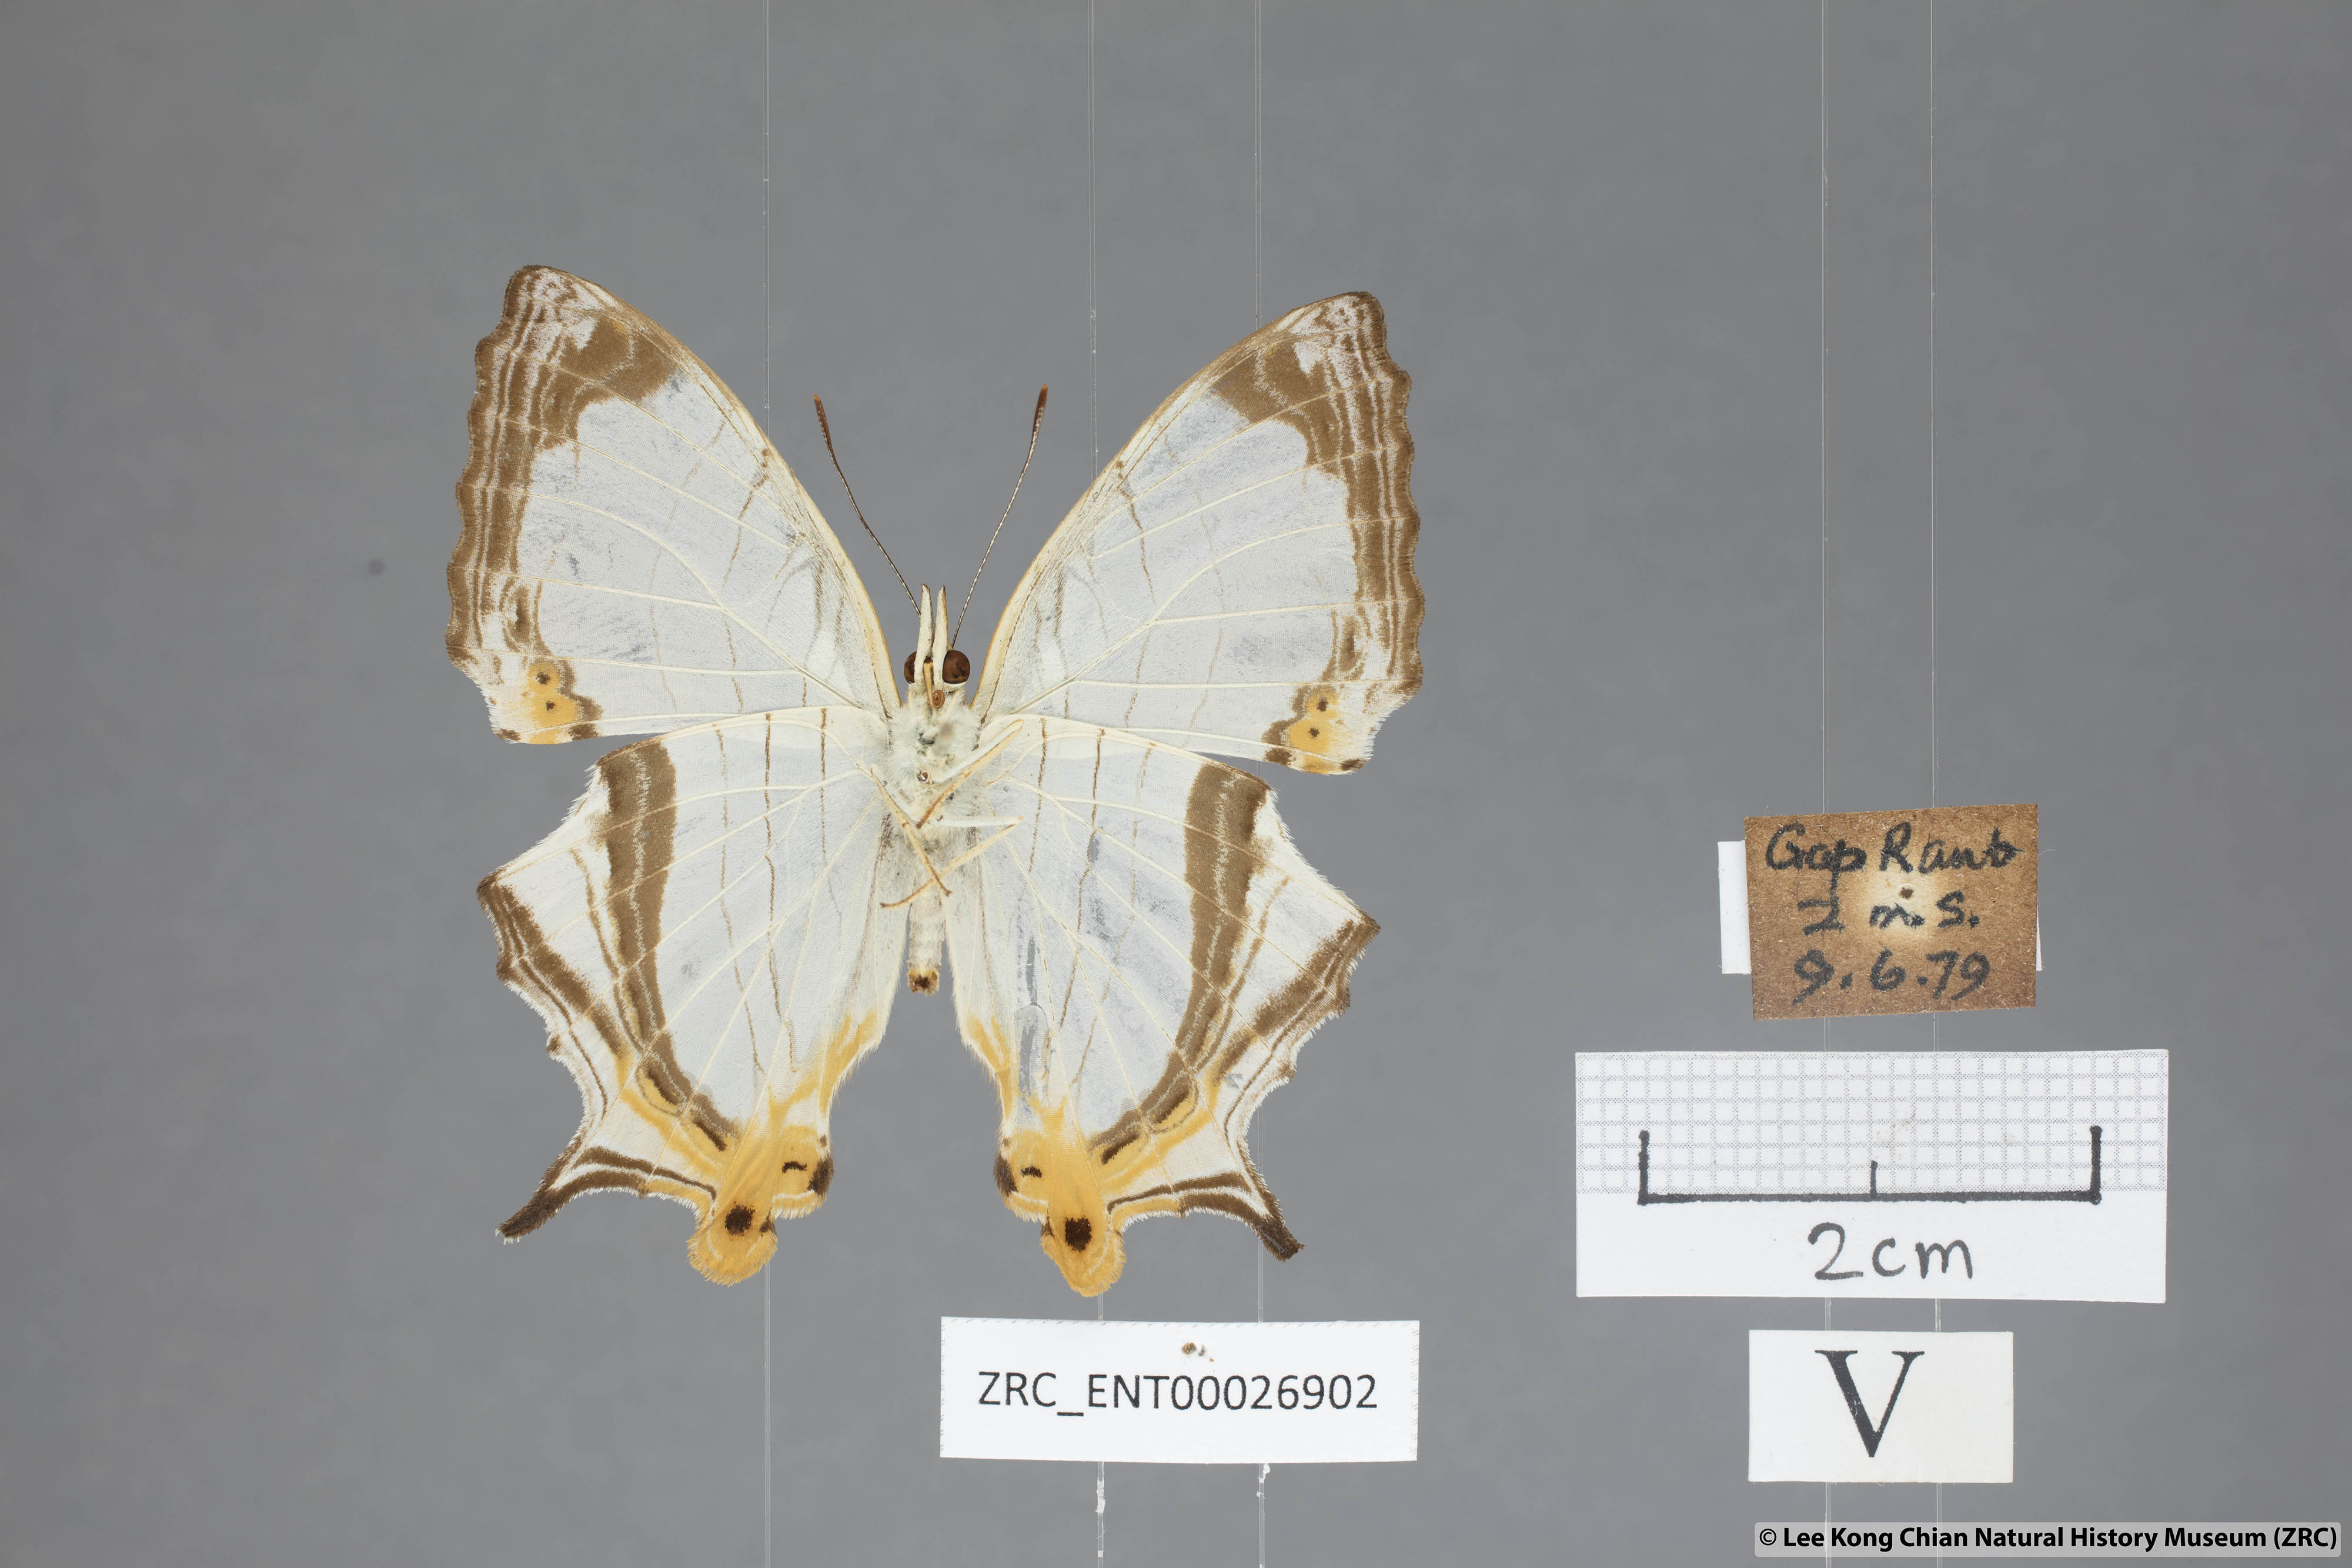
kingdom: Animalia
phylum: Arthropoda
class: Insecta
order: Lepidoptera
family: Nymphalidae
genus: Cyrestis
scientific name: Cyrestis nivea
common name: Straight line mapwing
